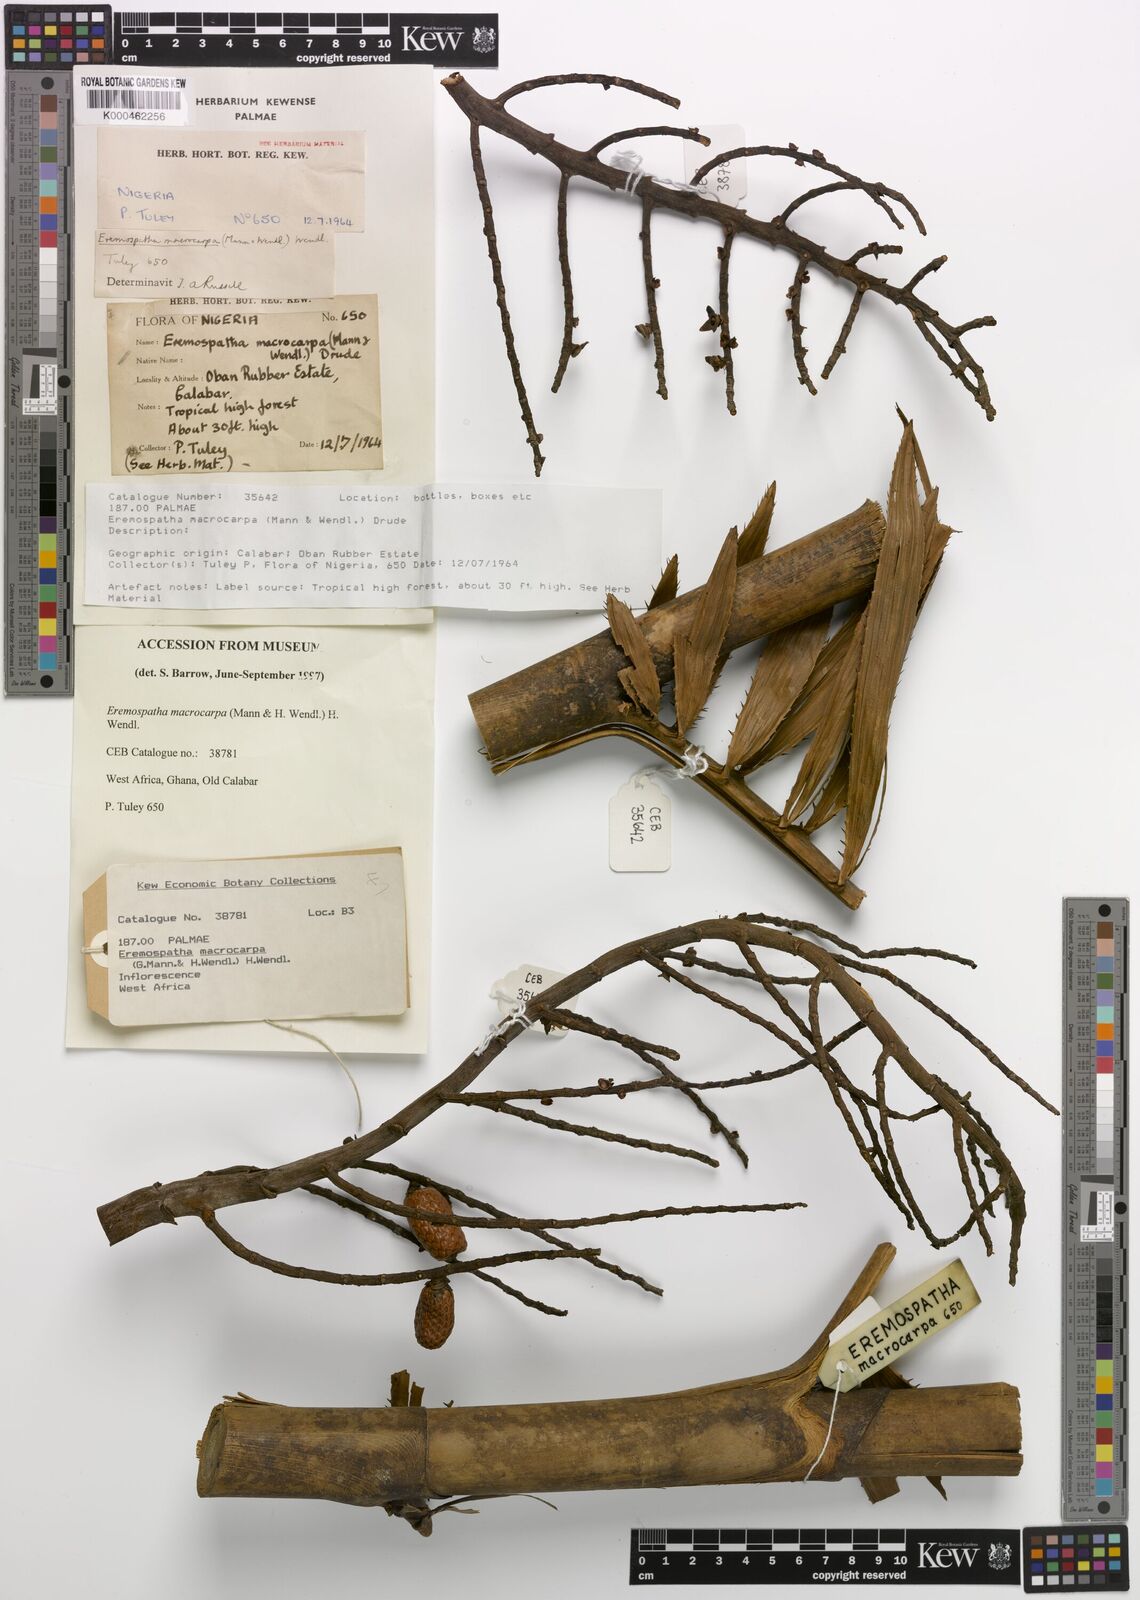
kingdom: Plantae
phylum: Tracheophyta
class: Liliopsida
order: Arecales
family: Arecaceae
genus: Eremospatha
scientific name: Eremospatha
